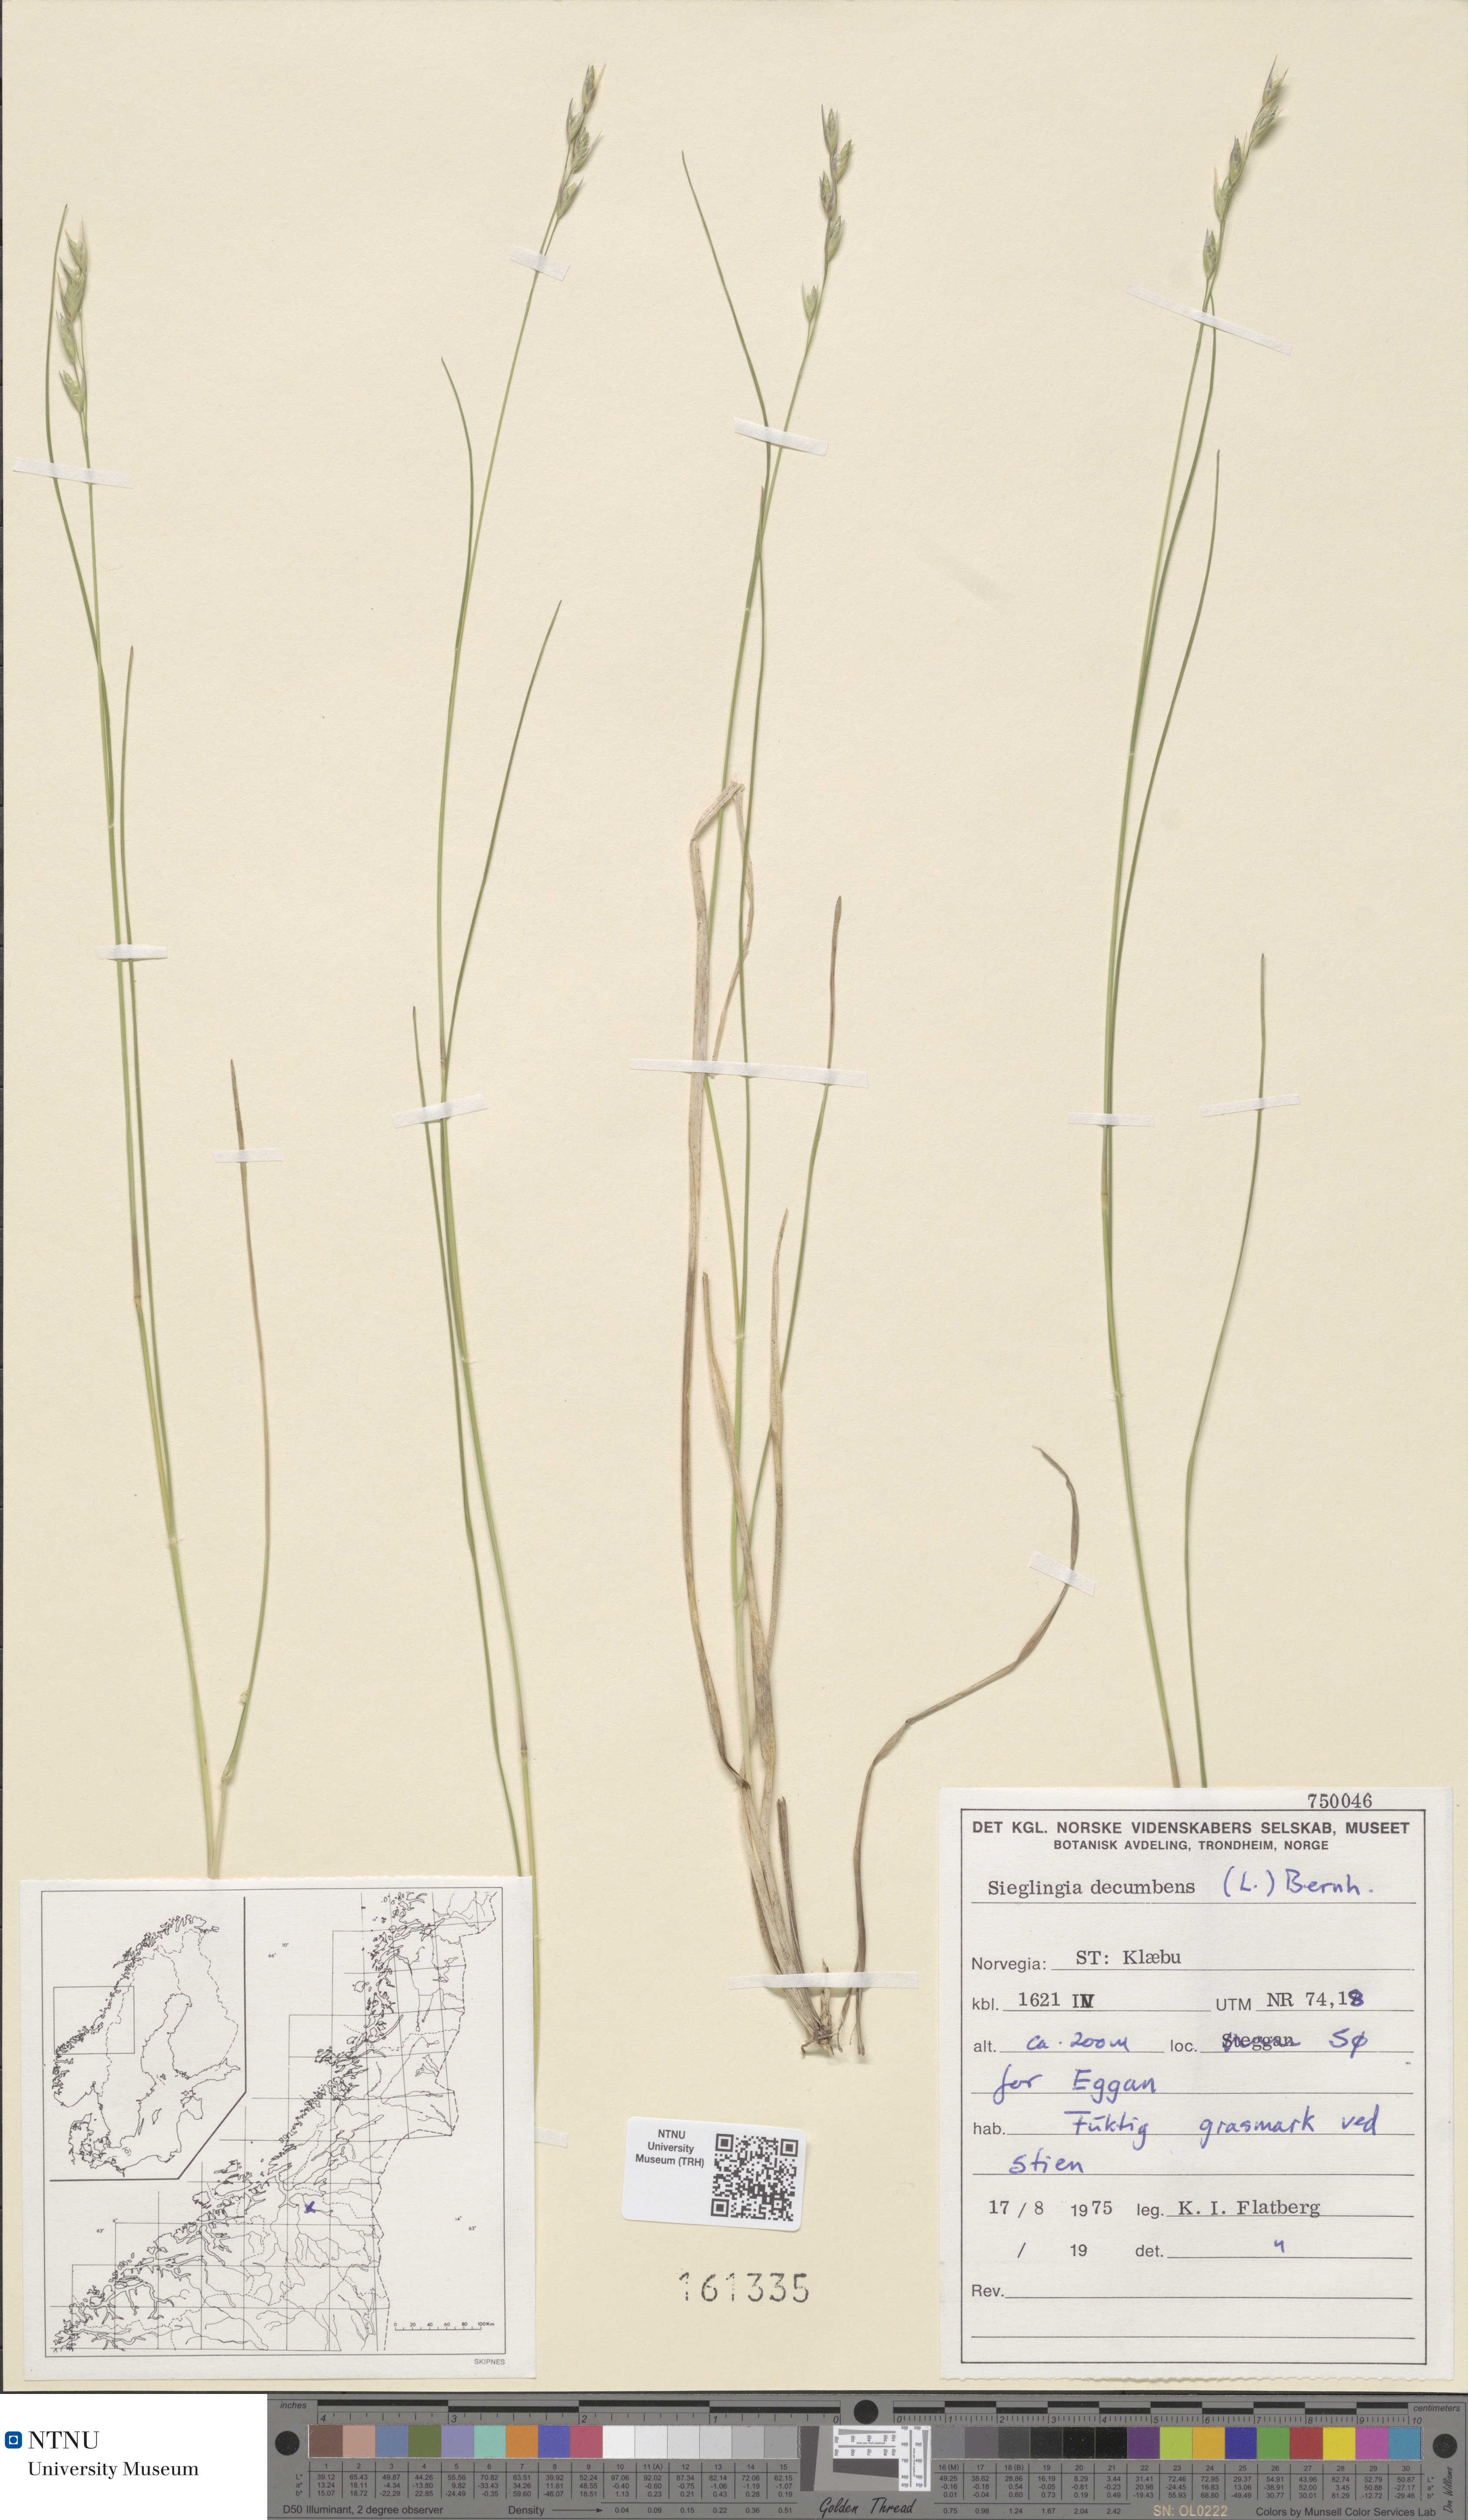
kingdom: Plantae
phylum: Tracheophyta
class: Liliopsida
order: Poales
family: Poaceae
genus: Danthonia
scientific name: Danthonia decumbens
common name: Common heathgrass
